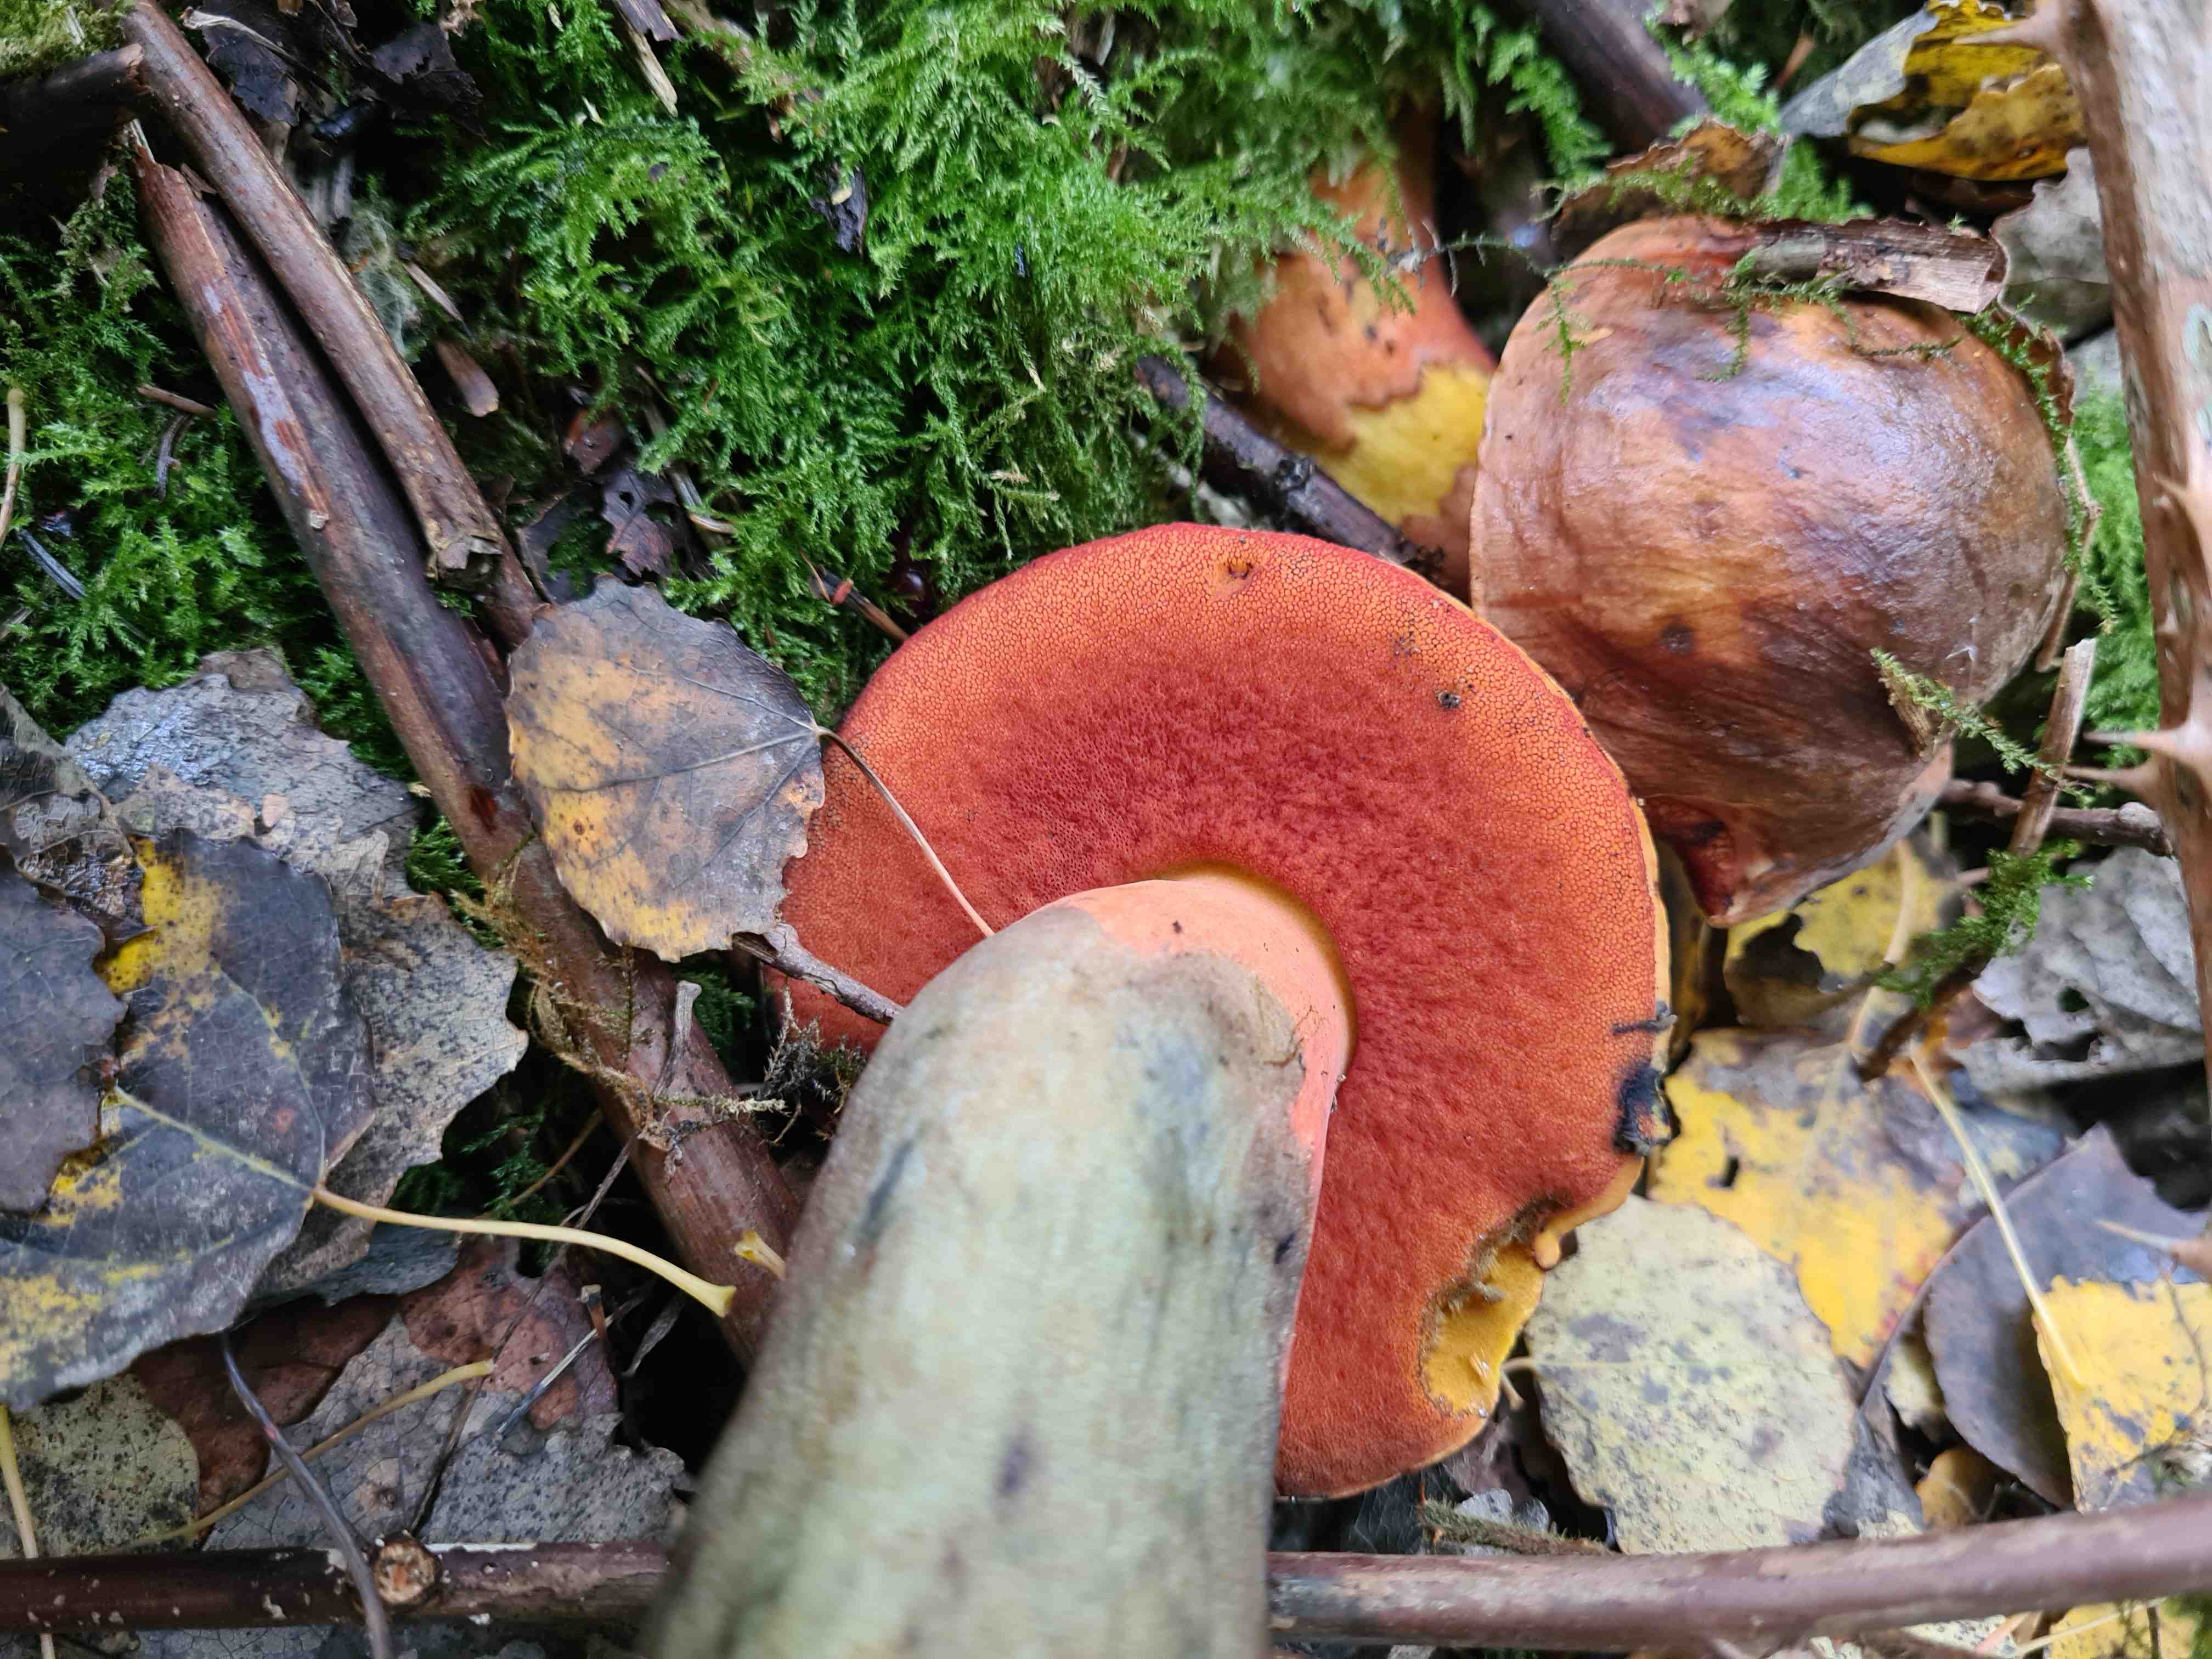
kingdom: Fungi
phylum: Basidiomycota
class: Agaricomycetes
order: Boletales
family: Boletaceae
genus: Neoboletus
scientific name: Neoboletus erythropus
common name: punktstokket indigorørhat
